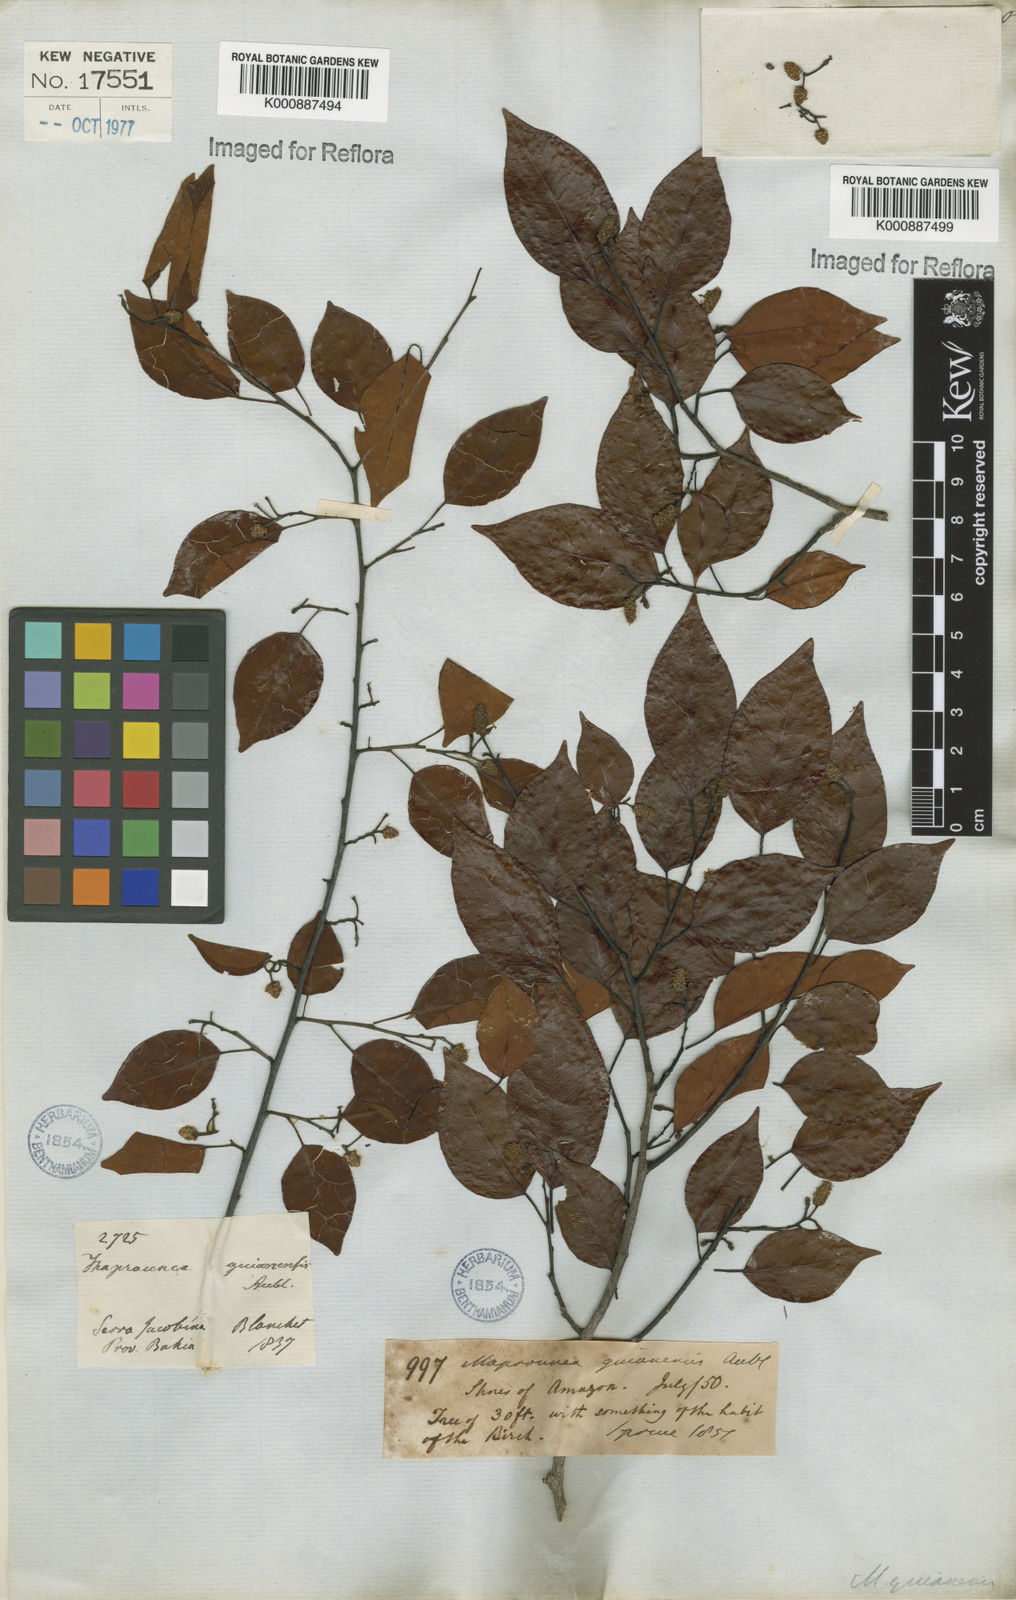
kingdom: Plantae
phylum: Tracheophyta
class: Magnoliopsida
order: Malpighiales
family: Euphorbiaceae
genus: Maprounea
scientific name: Maprounea guianensis
